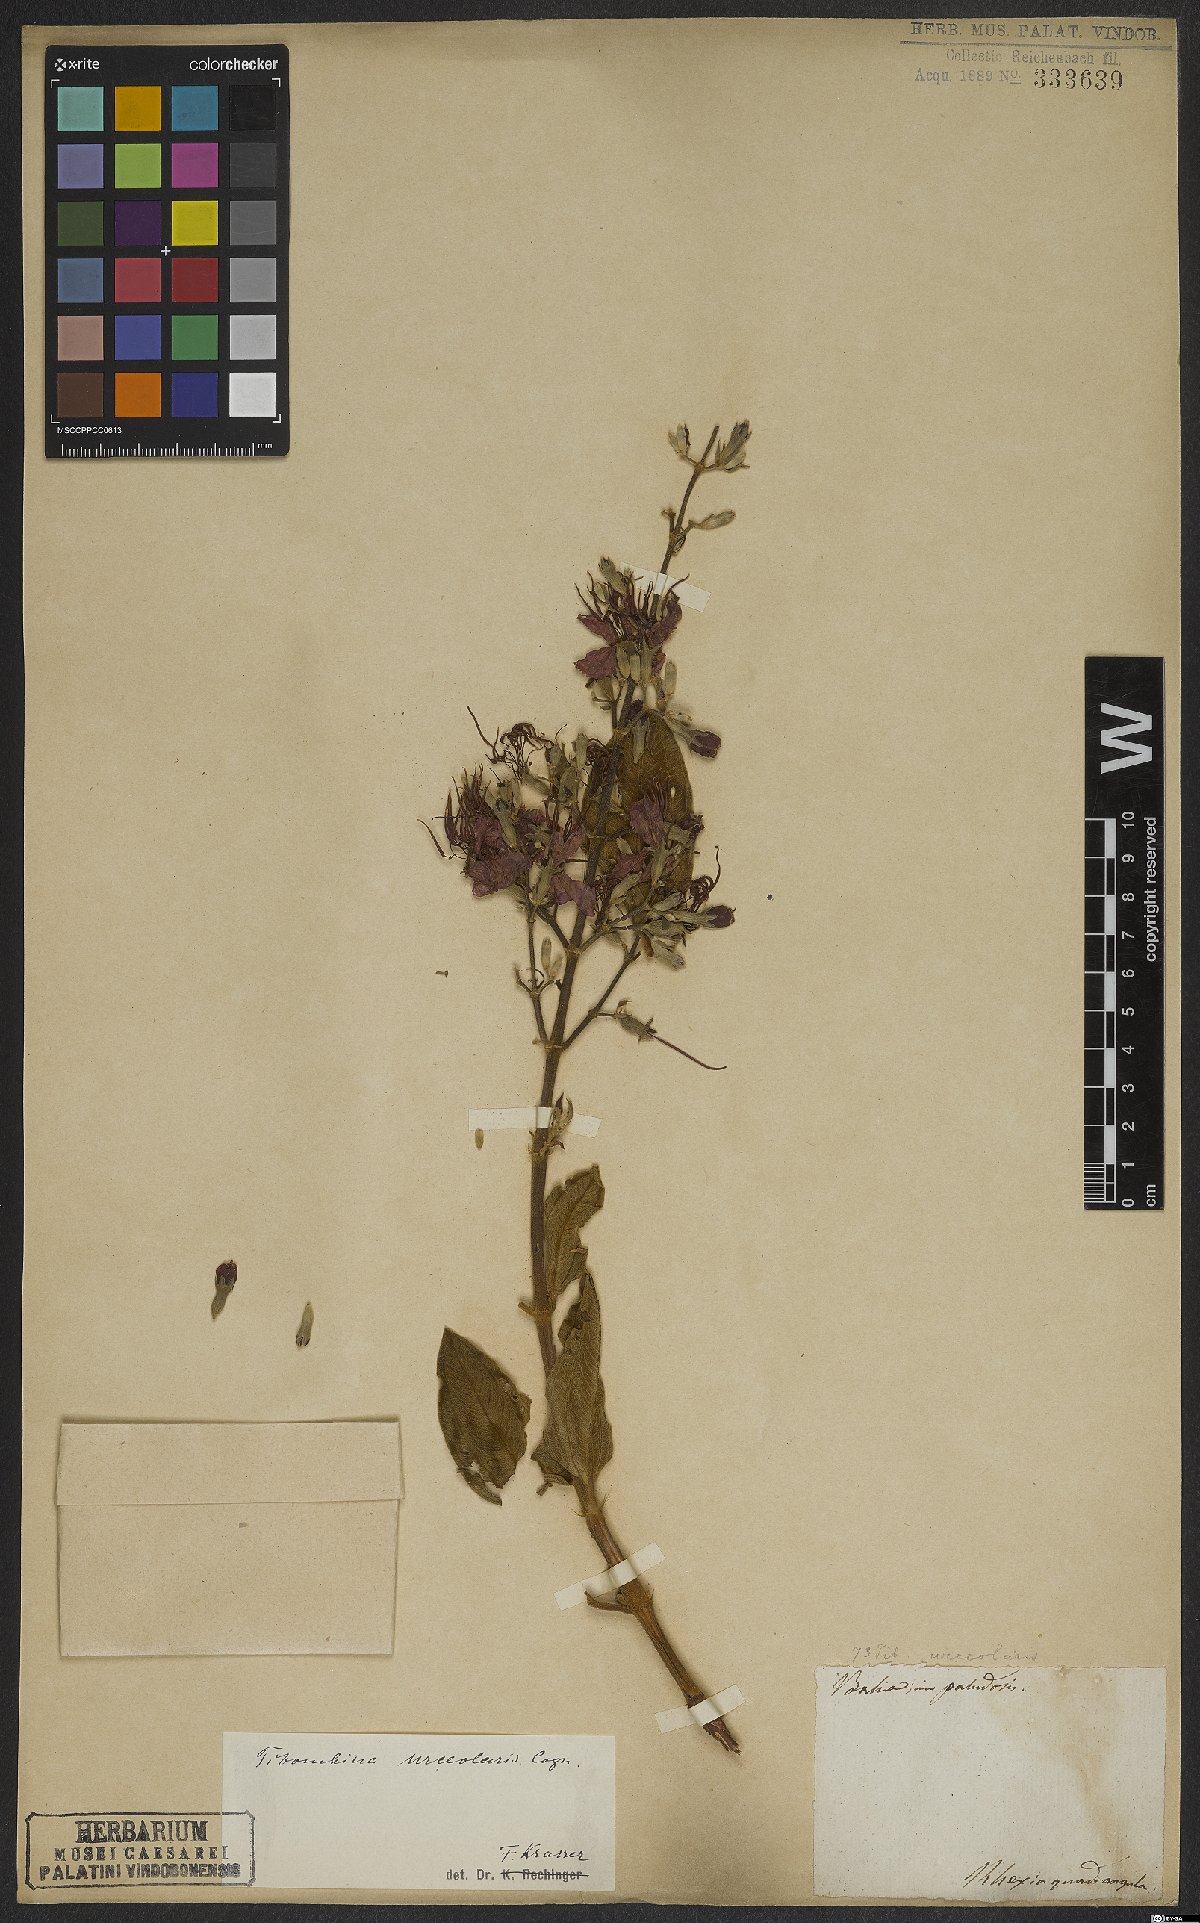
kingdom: Plantae
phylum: Tracheophyta
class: Magnoliopsida
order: Myrtales
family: Melastomataceae
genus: Pleroma
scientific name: Pleroma urceolare
